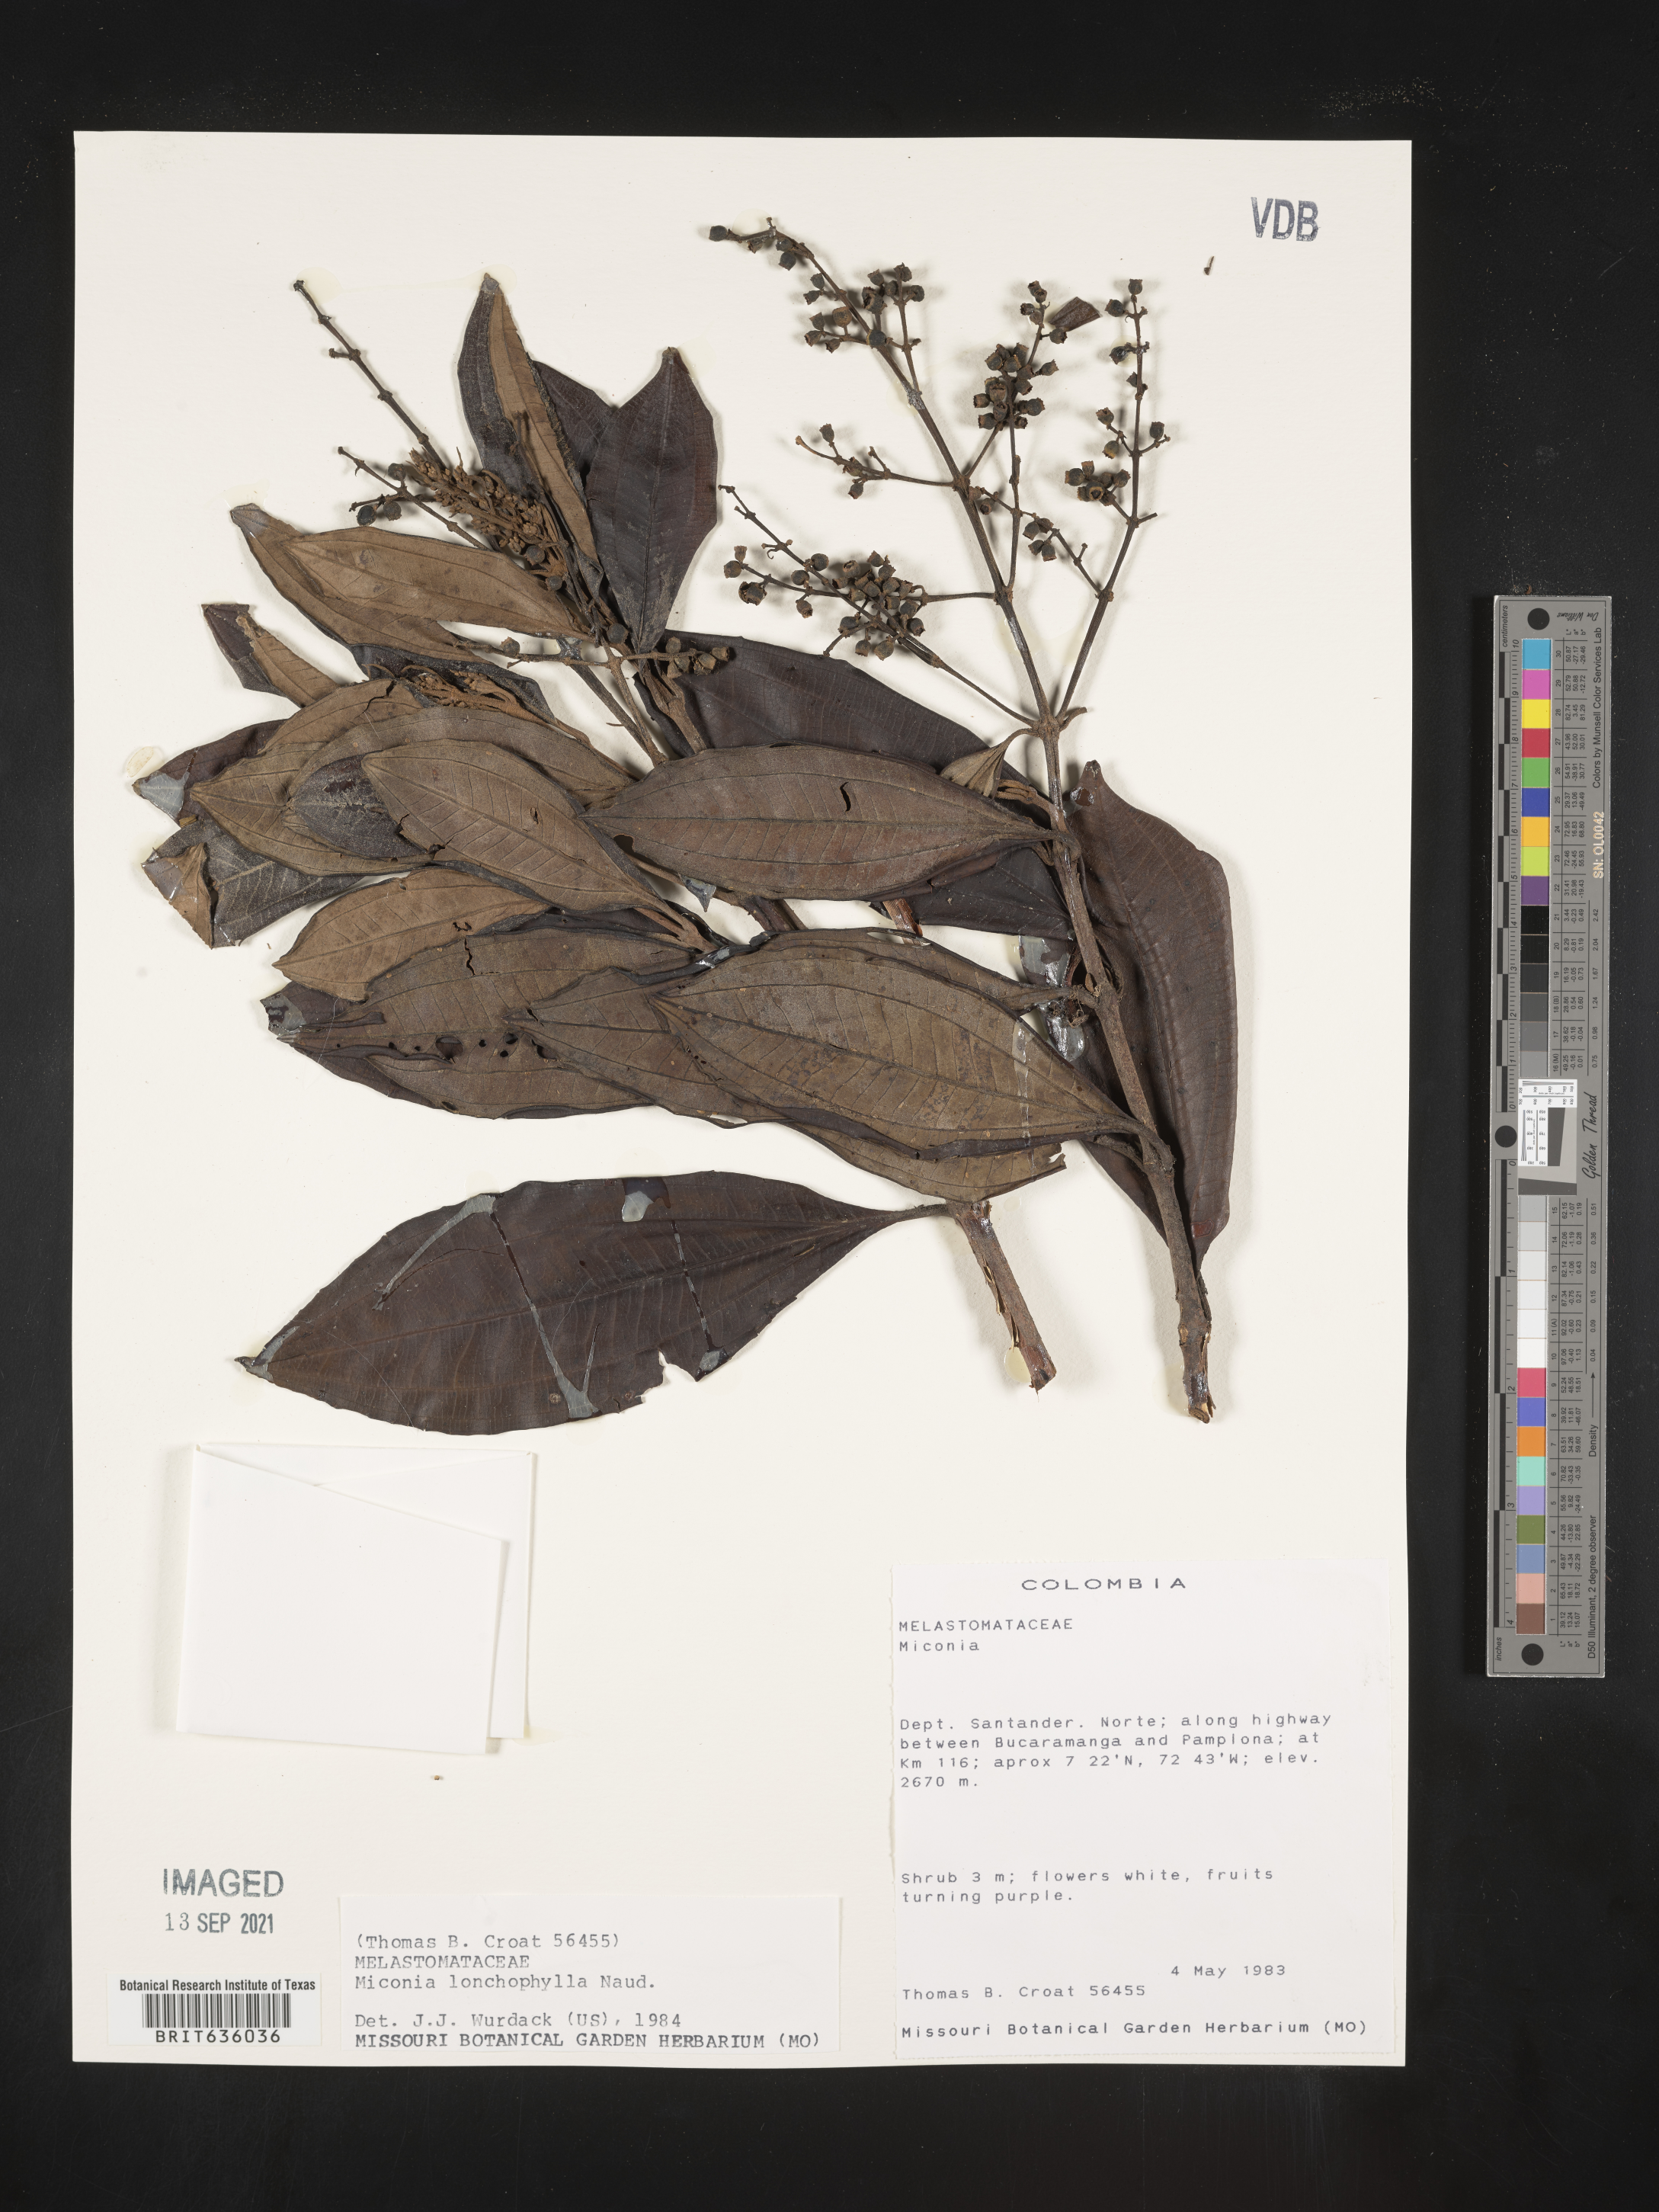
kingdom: Plantae
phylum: Tracheophyta
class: Magnoliopsida
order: Myrtales
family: Melastomataceae
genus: Miconia
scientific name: Miconia
